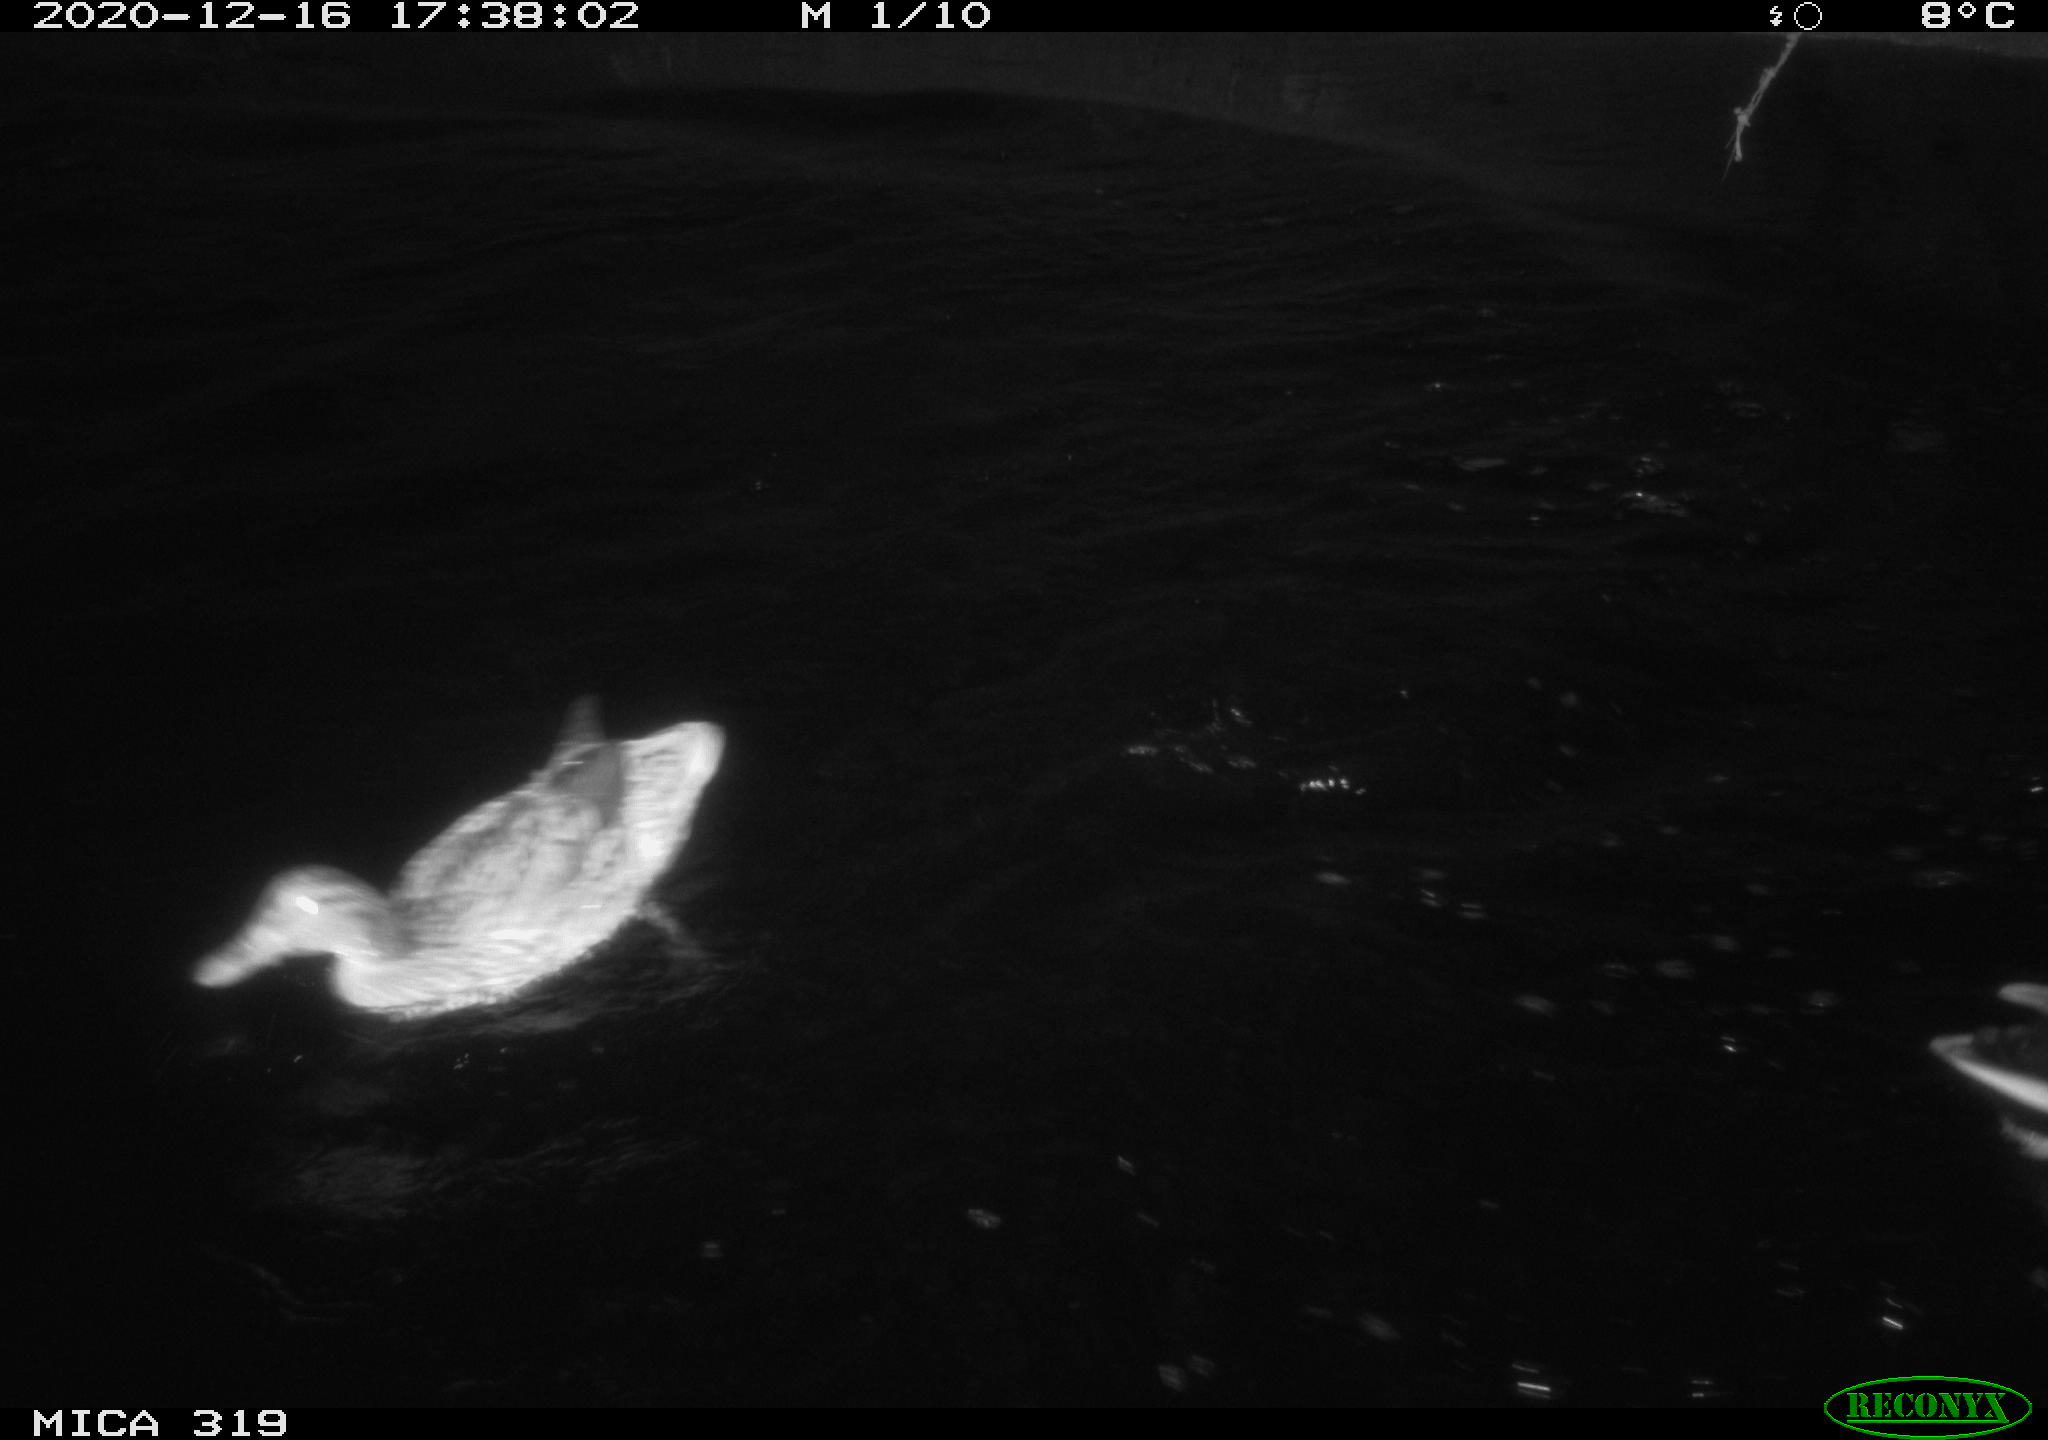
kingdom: Animalia
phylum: Chordata
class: Aves
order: Anseriformes
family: Anatidae
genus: Anas
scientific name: Anas platyrhynchos
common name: Mallard
